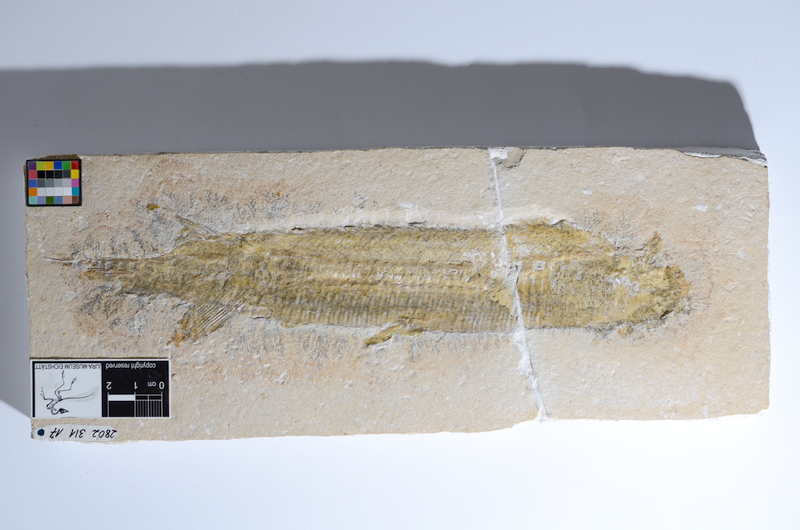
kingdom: Animalia
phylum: Chordata
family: Aspidorhynchidae
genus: Aspidorhynchus
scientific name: Aspidorhynchus acutirostris
